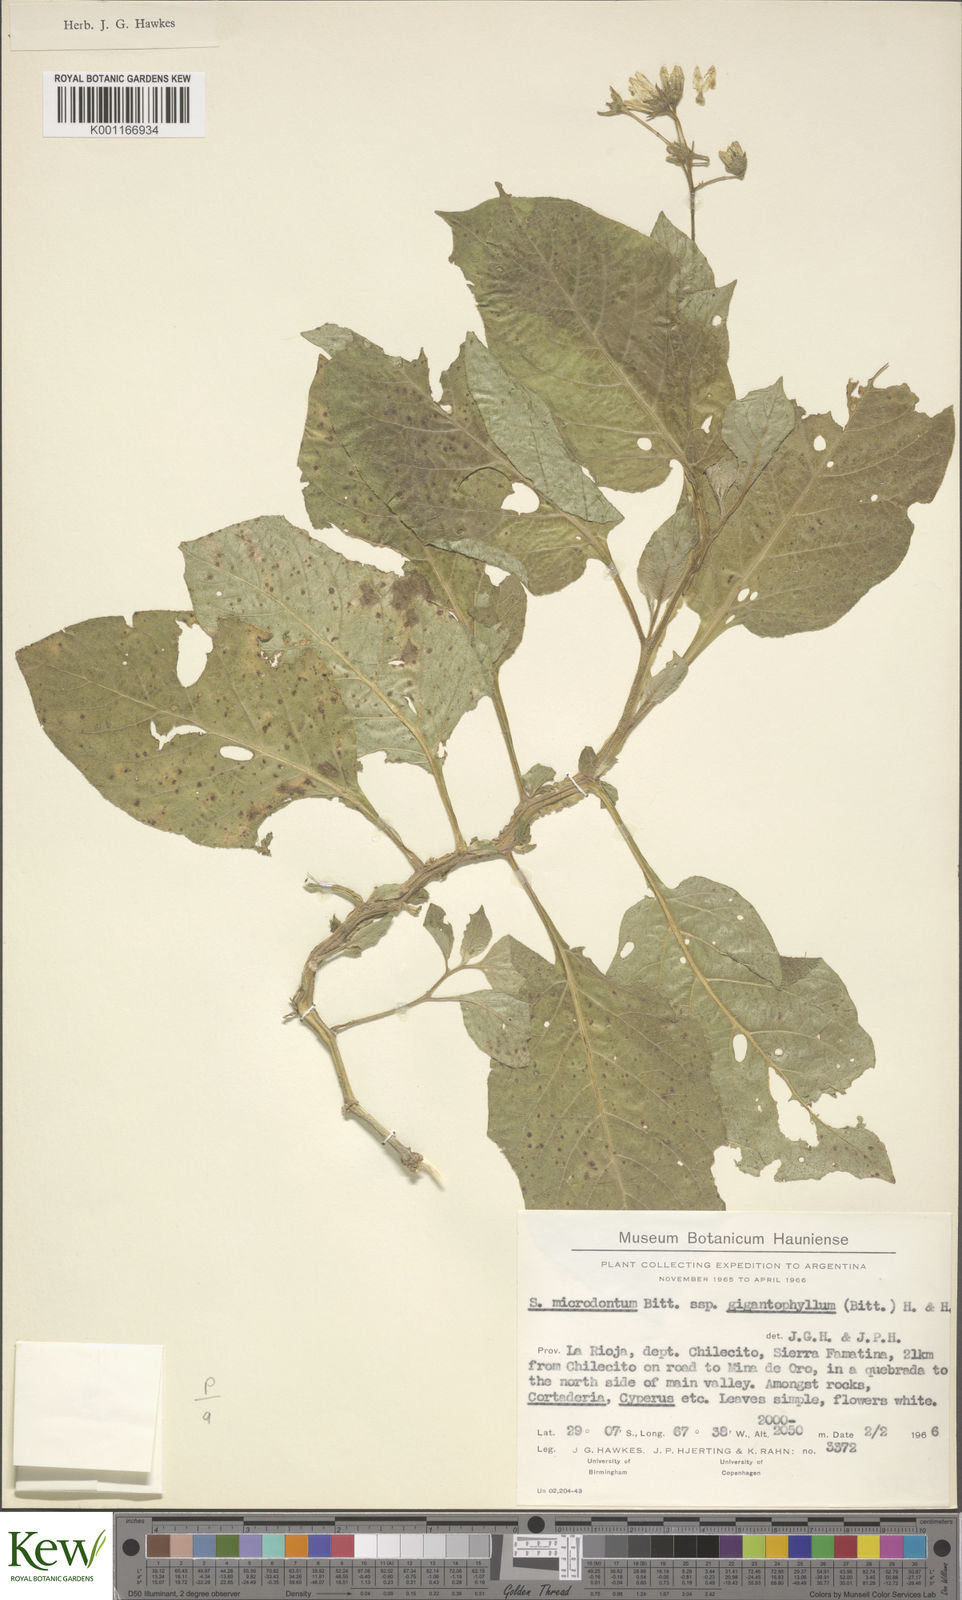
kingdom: Plantae
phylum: Tracheophyta
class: Magnoliopsida
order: Solanales
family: Solanaceae
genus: Solanum
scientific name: Solanum microdontum
